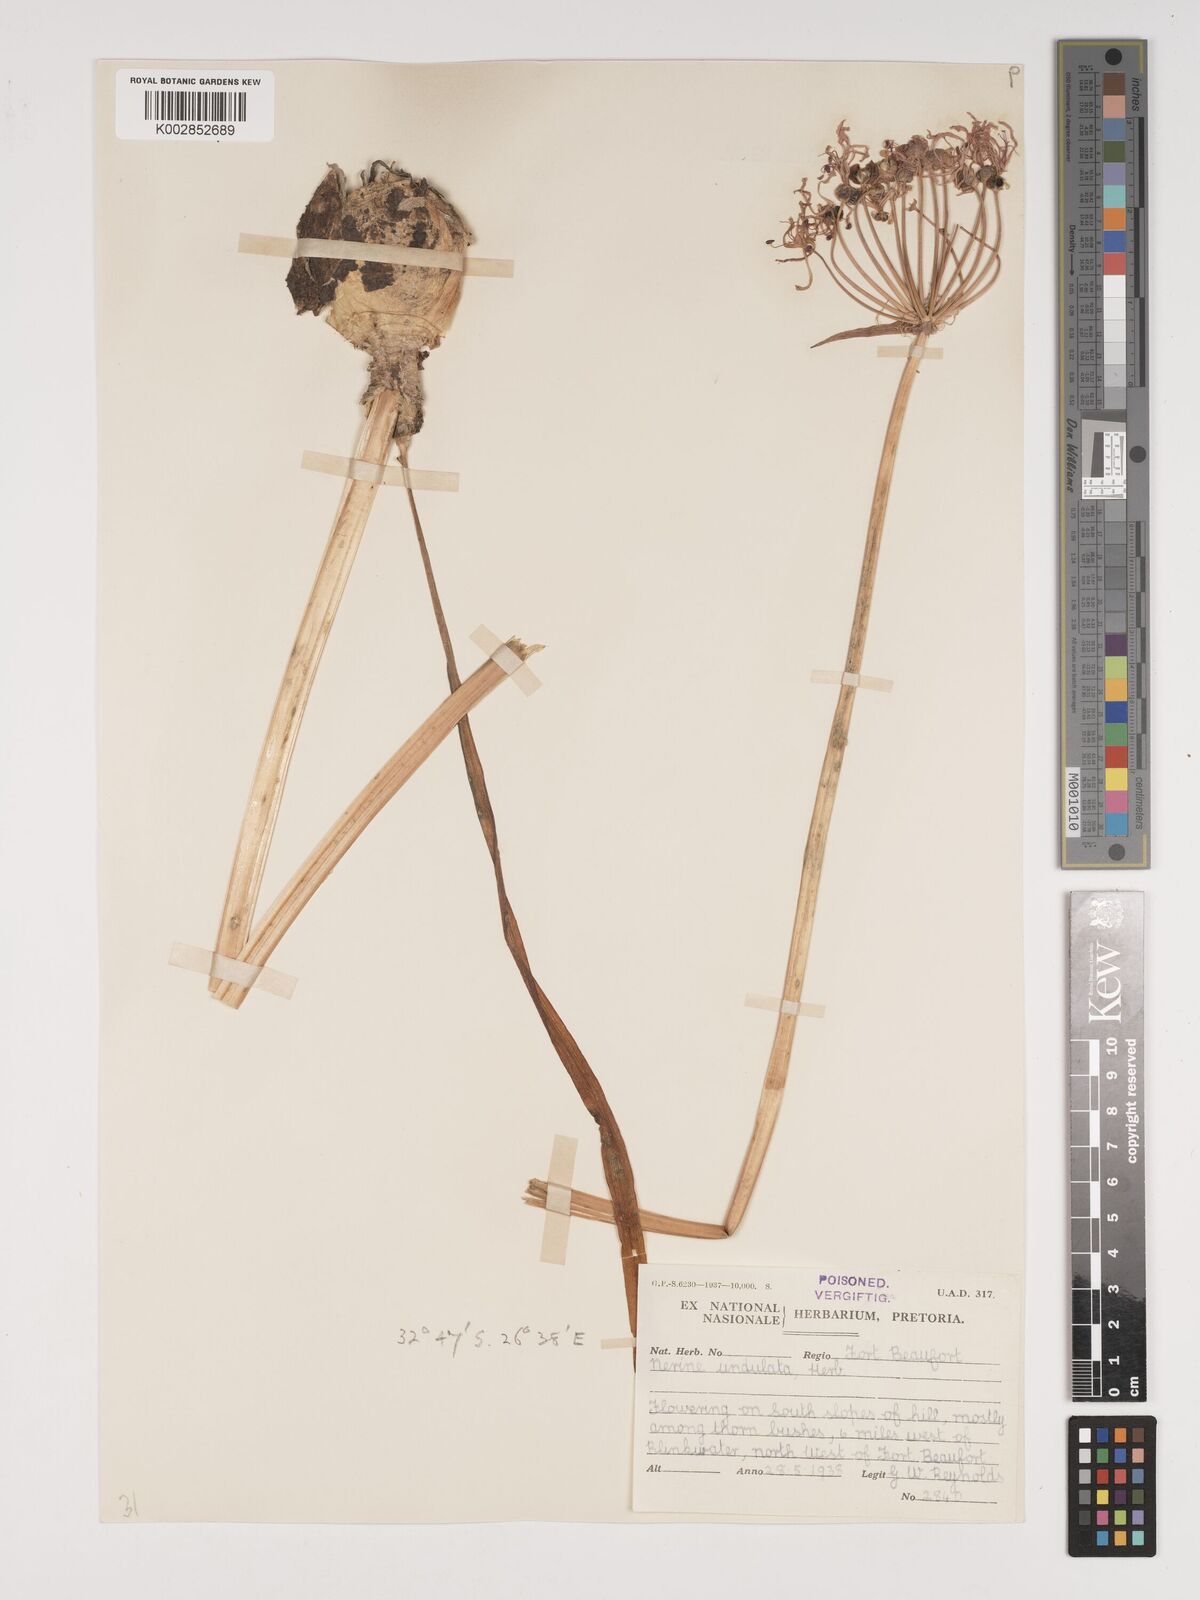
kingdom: Plantae
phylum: Tracheophyta
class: Liliopsida
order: Asparagales
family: Amaryllidaceae
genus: Nerine
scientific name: Nerine undulata
